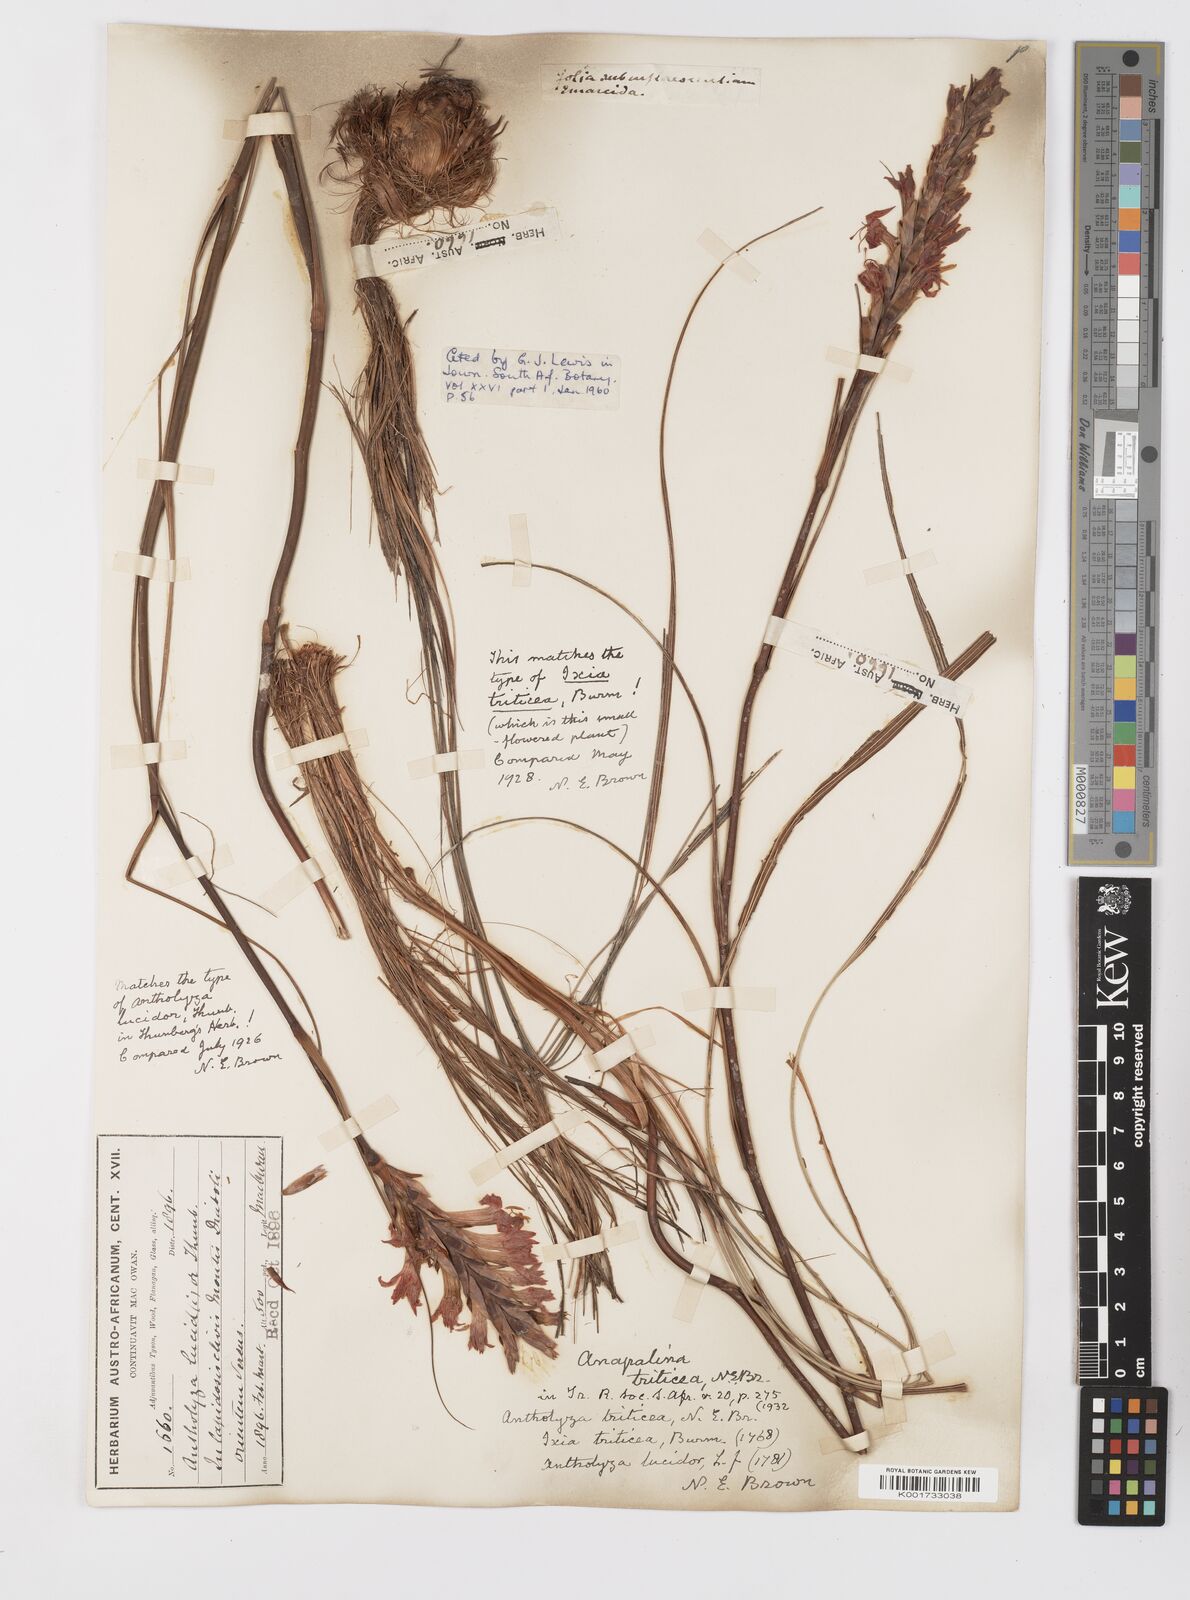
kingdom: Plantae
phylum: Tracheophyta
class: Liliopsida
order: Asparagales
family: Iridaceae
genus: Tritoniopsis
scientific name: Tritoniopsis triticea
